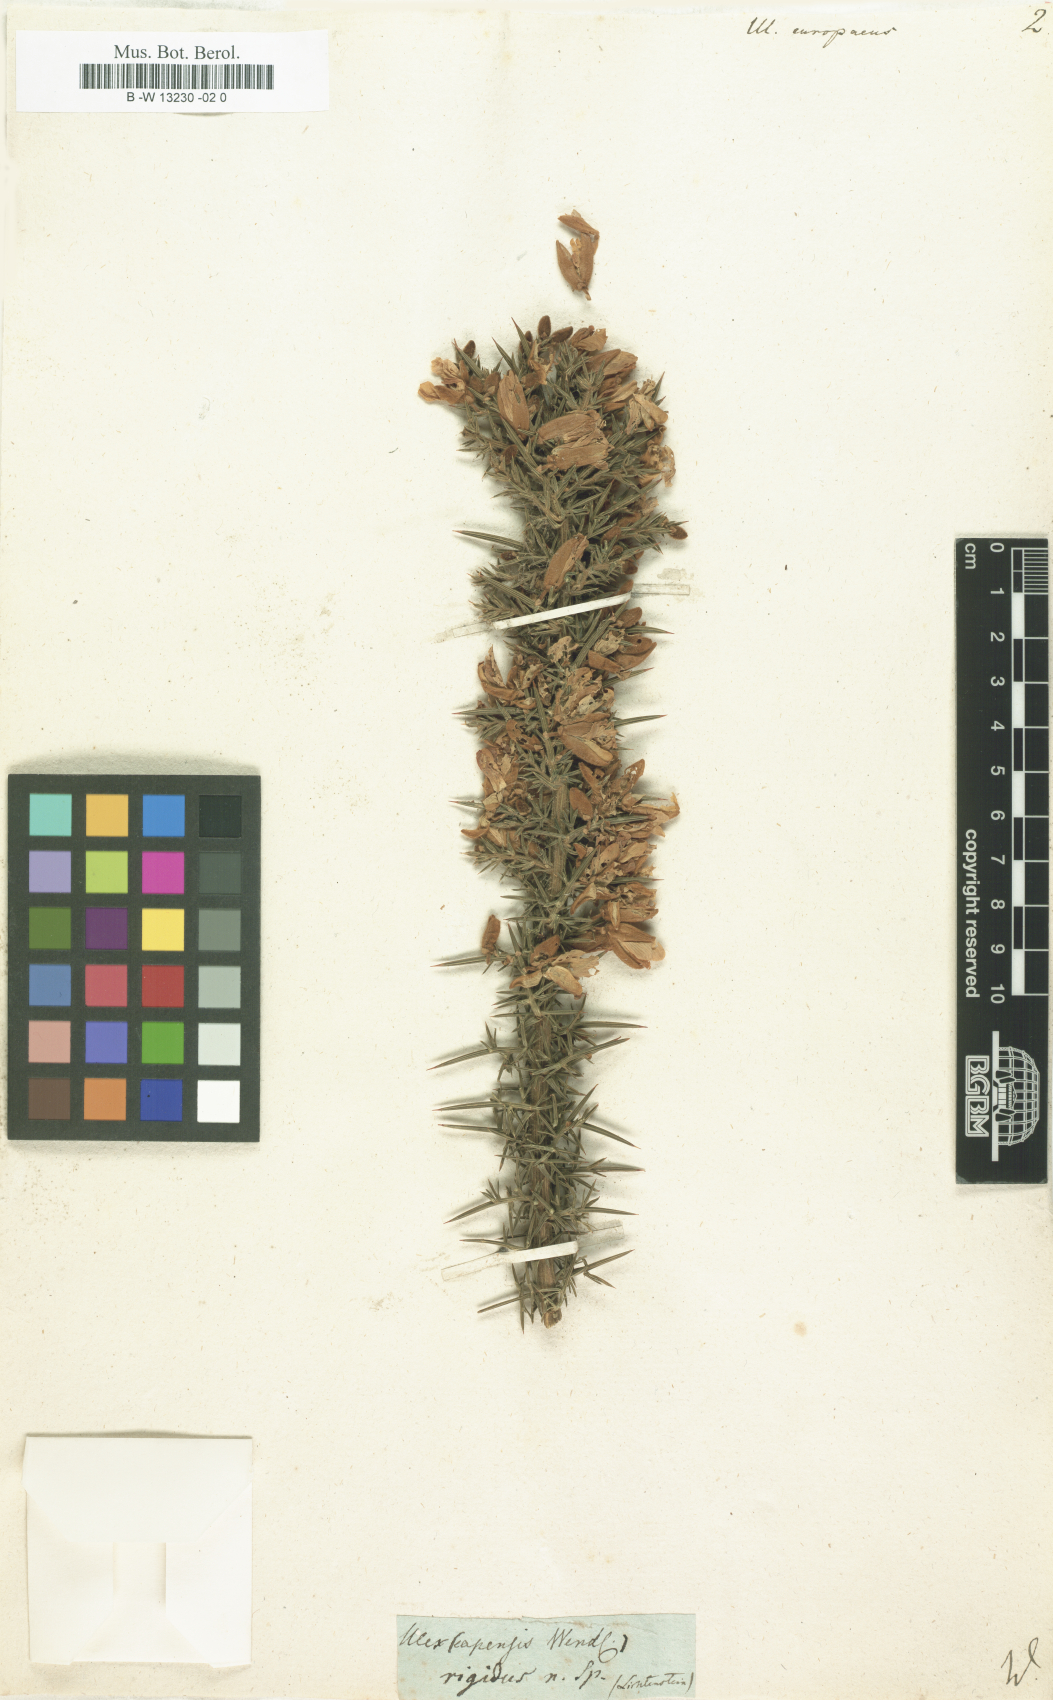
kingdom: Plantae
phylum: Tracheophyta
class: Magnoliopsida
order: Fabales
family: Fabaceae
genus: Ulex
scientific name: Ulex europaeus
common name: Common gorse
